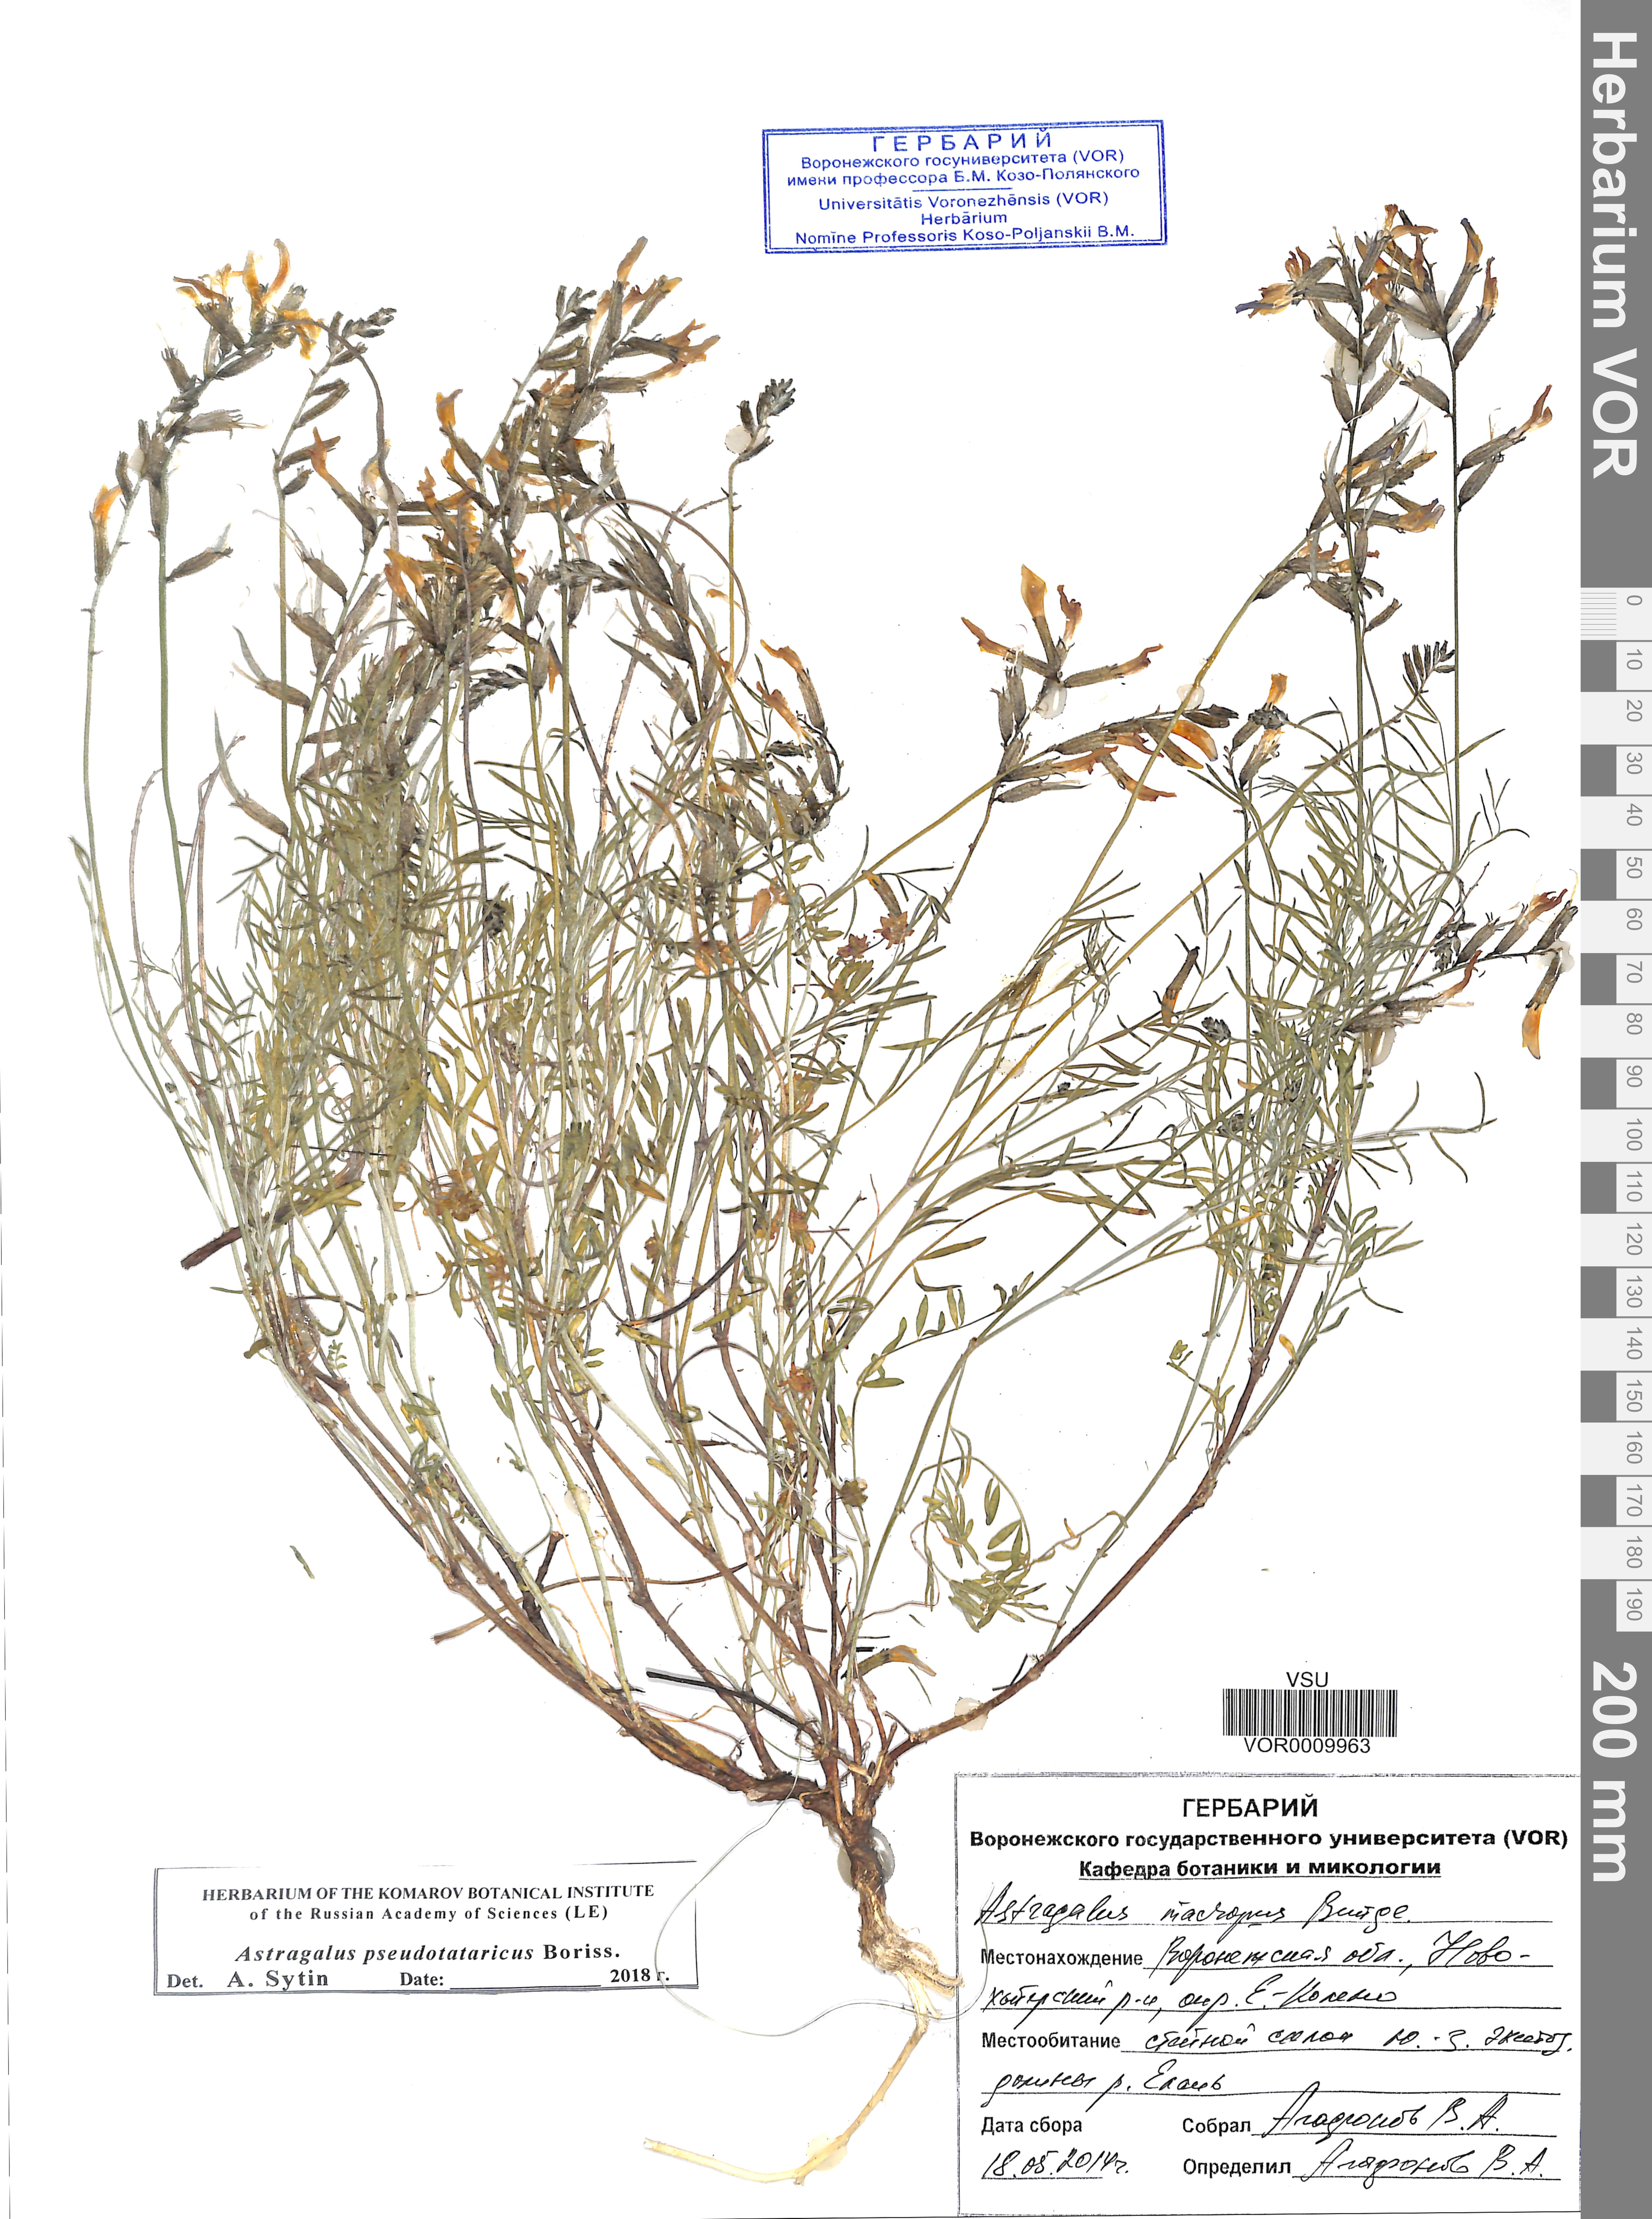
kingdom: Plantae
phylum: Tracheophyta
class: Magnoliopsida
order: Fabales
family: Fabaceae
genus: Astragalus
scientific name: Astragalus pseudotataricus
